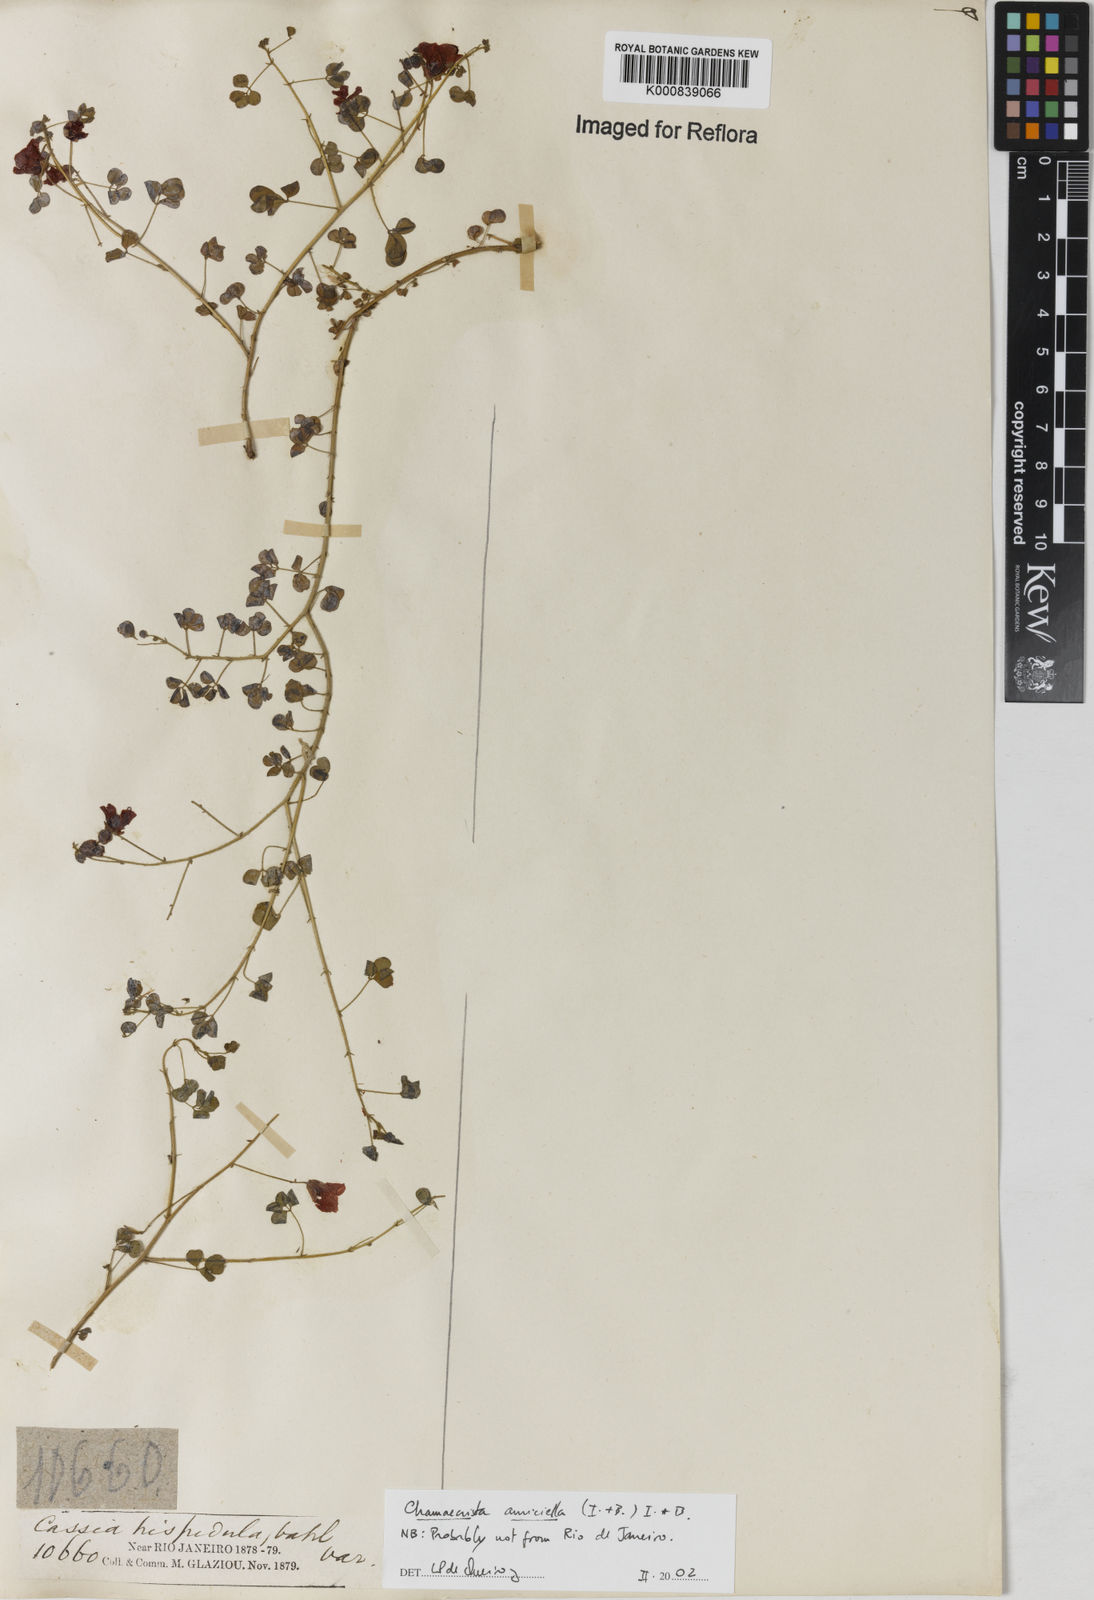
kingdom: Plantae
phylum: Tracheophyta
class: Magnoliopsida
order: Fabales
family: Fabaceae
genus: Chamaecrista
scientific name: Chamaecrista amiciella
